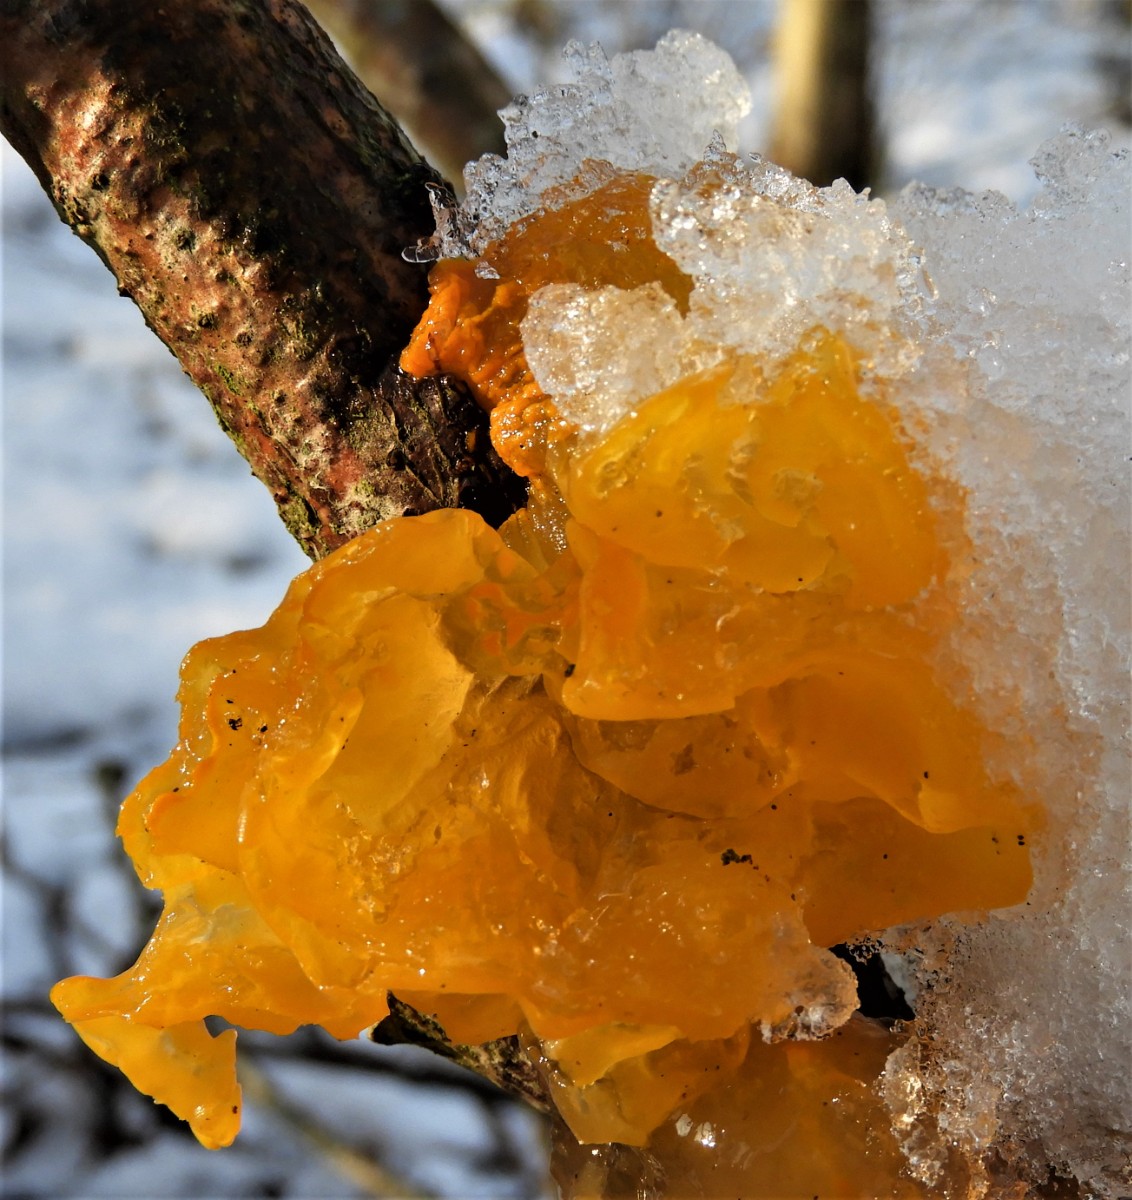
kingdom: Fungi
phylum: Basidiomycota
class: Tremellomycetes
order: Tremellales
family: Tremellaceae
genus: Tremella
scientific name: Tremella mesenterica
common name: gul bævresvamp
